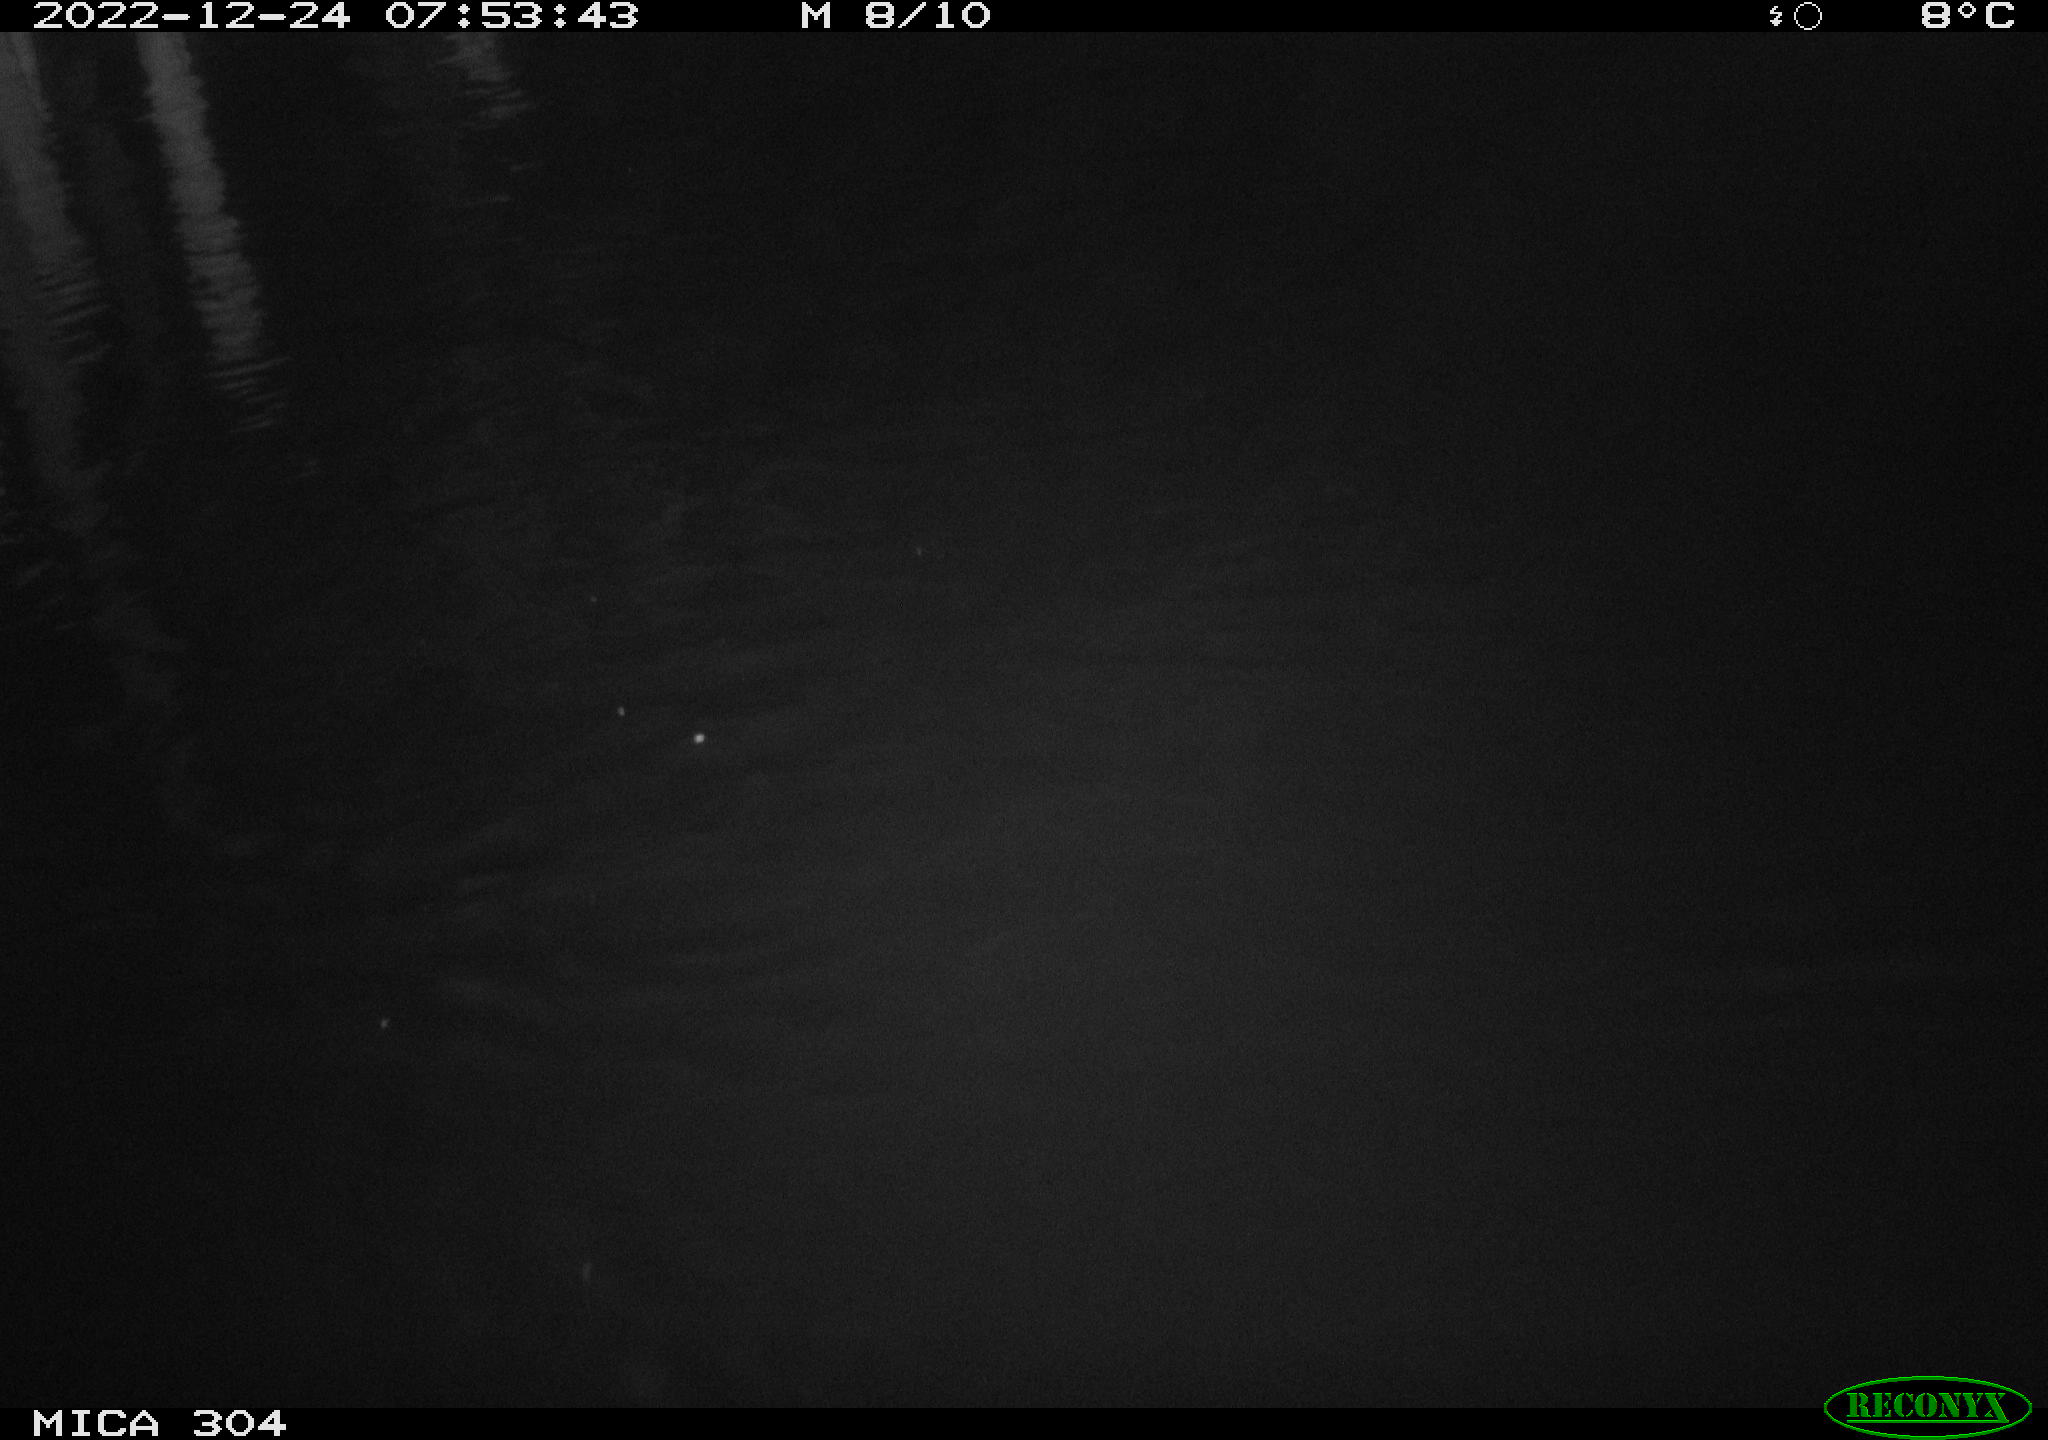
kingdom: Animalia
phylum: Chordata
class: Aves
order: Anseriformes
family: Anatidae
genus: Anas
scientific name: Anas
